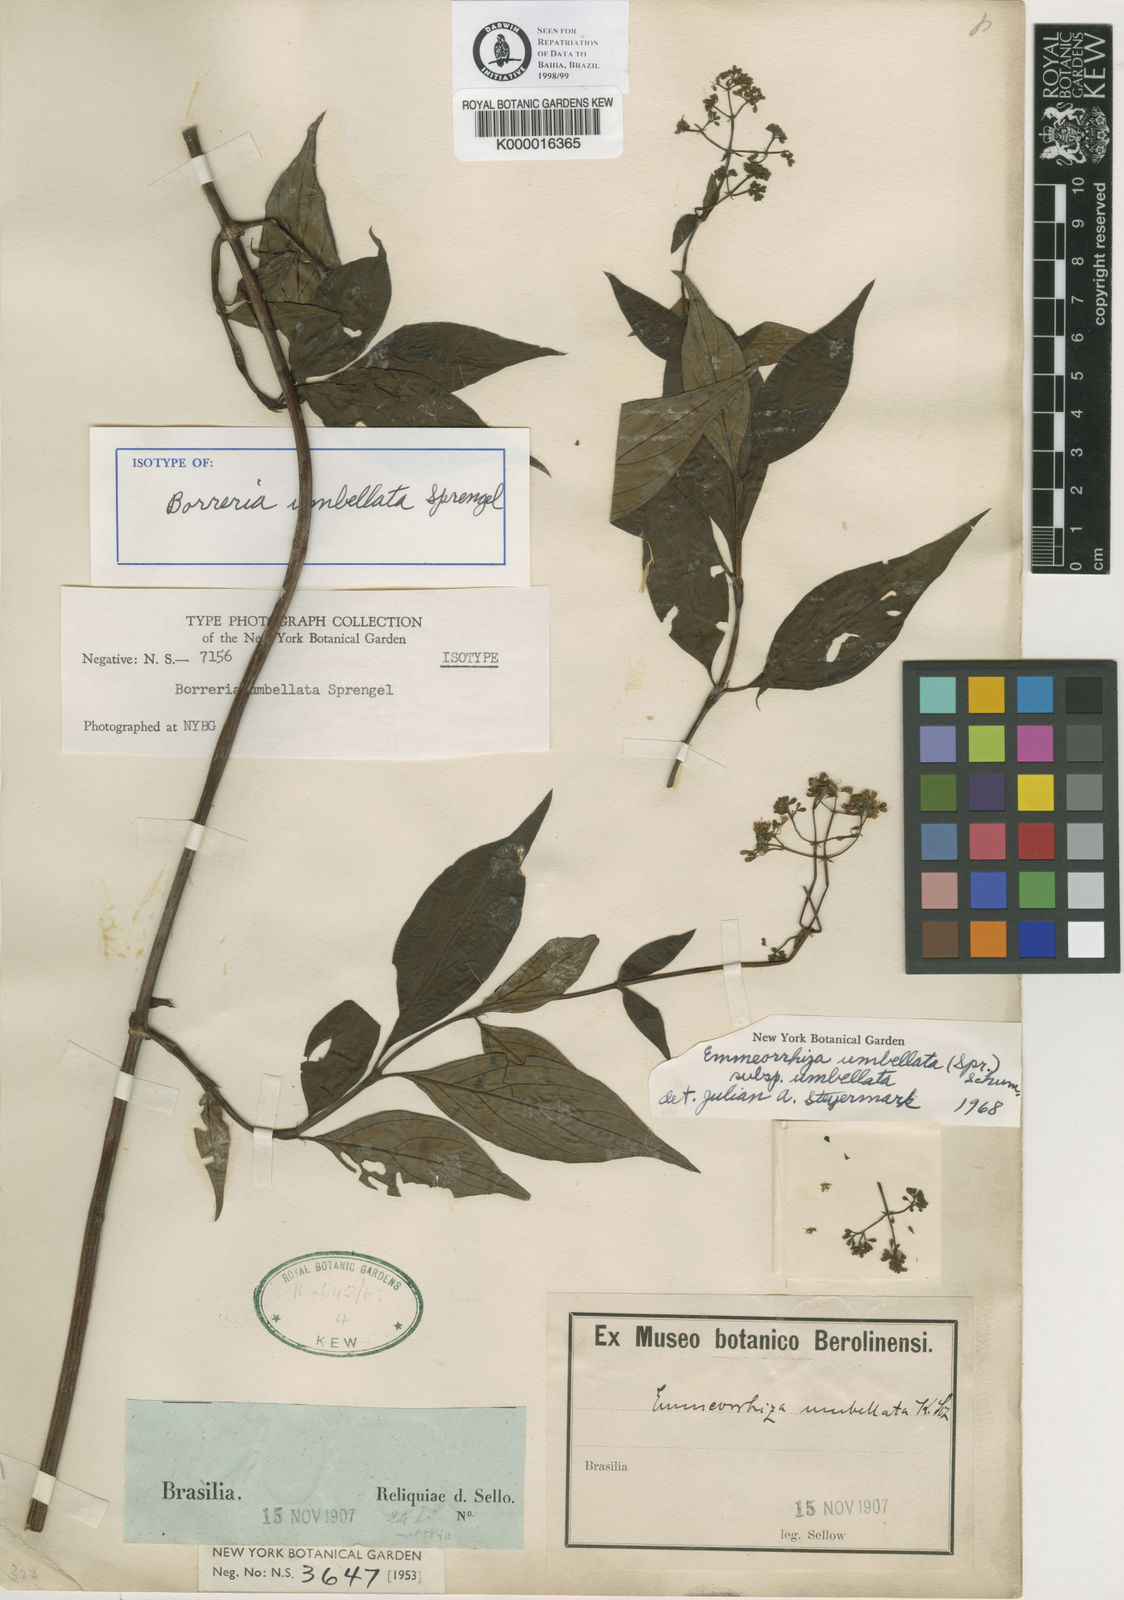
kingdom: Plantae
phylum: Tracheophyta
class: Magnoliopsida
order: Gentianales
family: Rubiaceae
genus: Emmeorhiza
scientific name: Emmeorhiza umbellata
